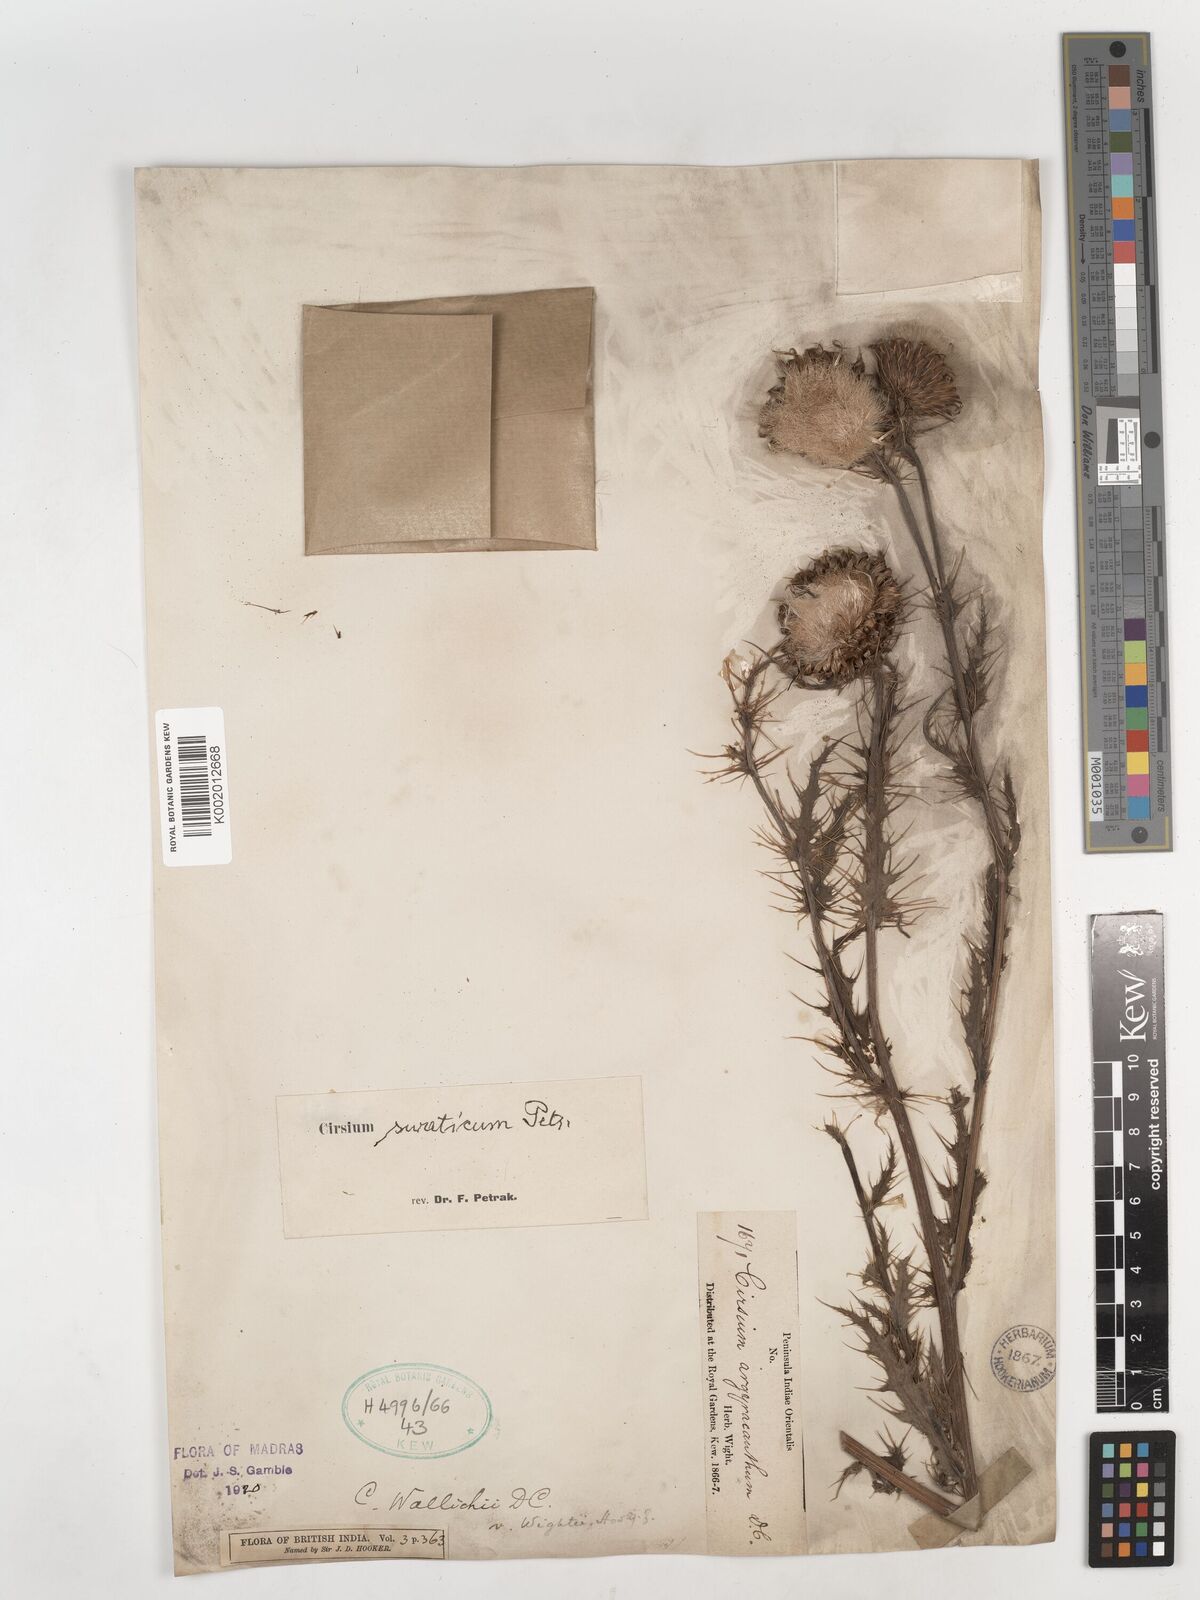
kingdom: Plantae
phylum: Tracheophyta
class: Magnoliopsida
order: Asterales
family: Asteraceae
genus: Cirsium
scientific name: Cirsium swaticum
